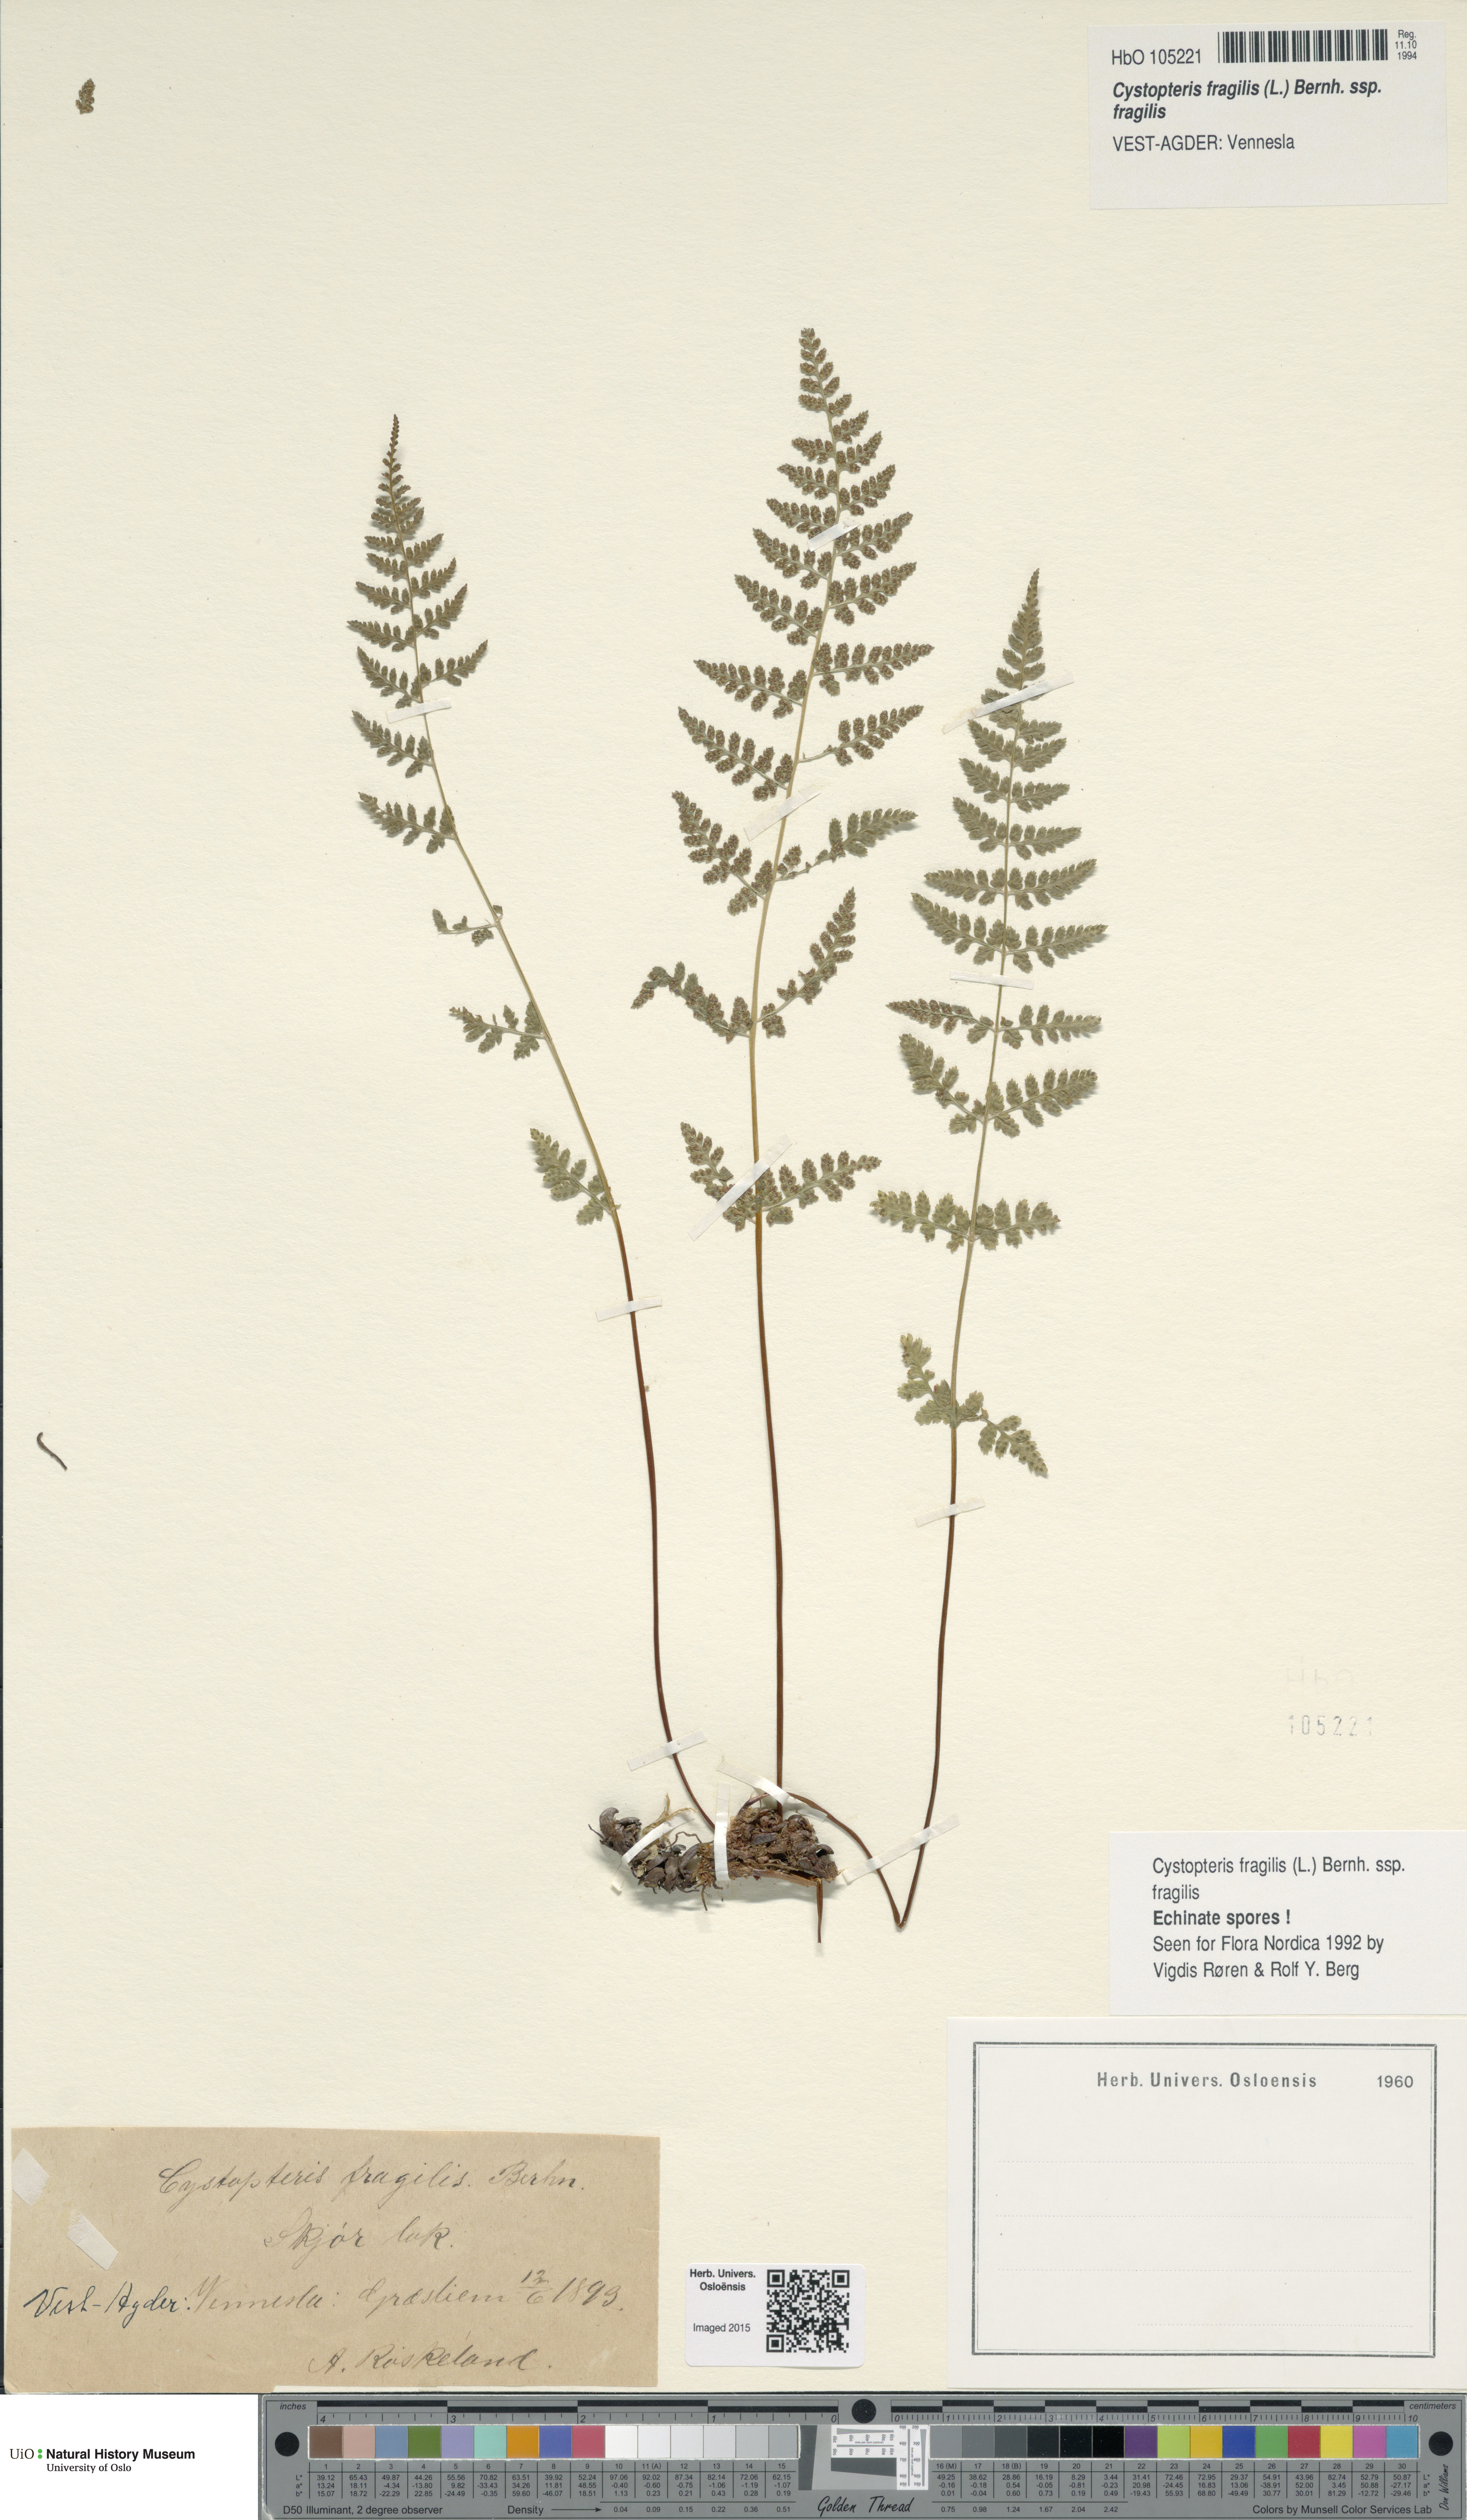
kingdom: Plantae
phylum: Tracheophyta
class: Polypodiopsida
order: Polypodiales
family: Cystopteridaceae
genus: Cystopteris
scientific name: Cystopteris fragilis
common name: Brittle bladder fern
